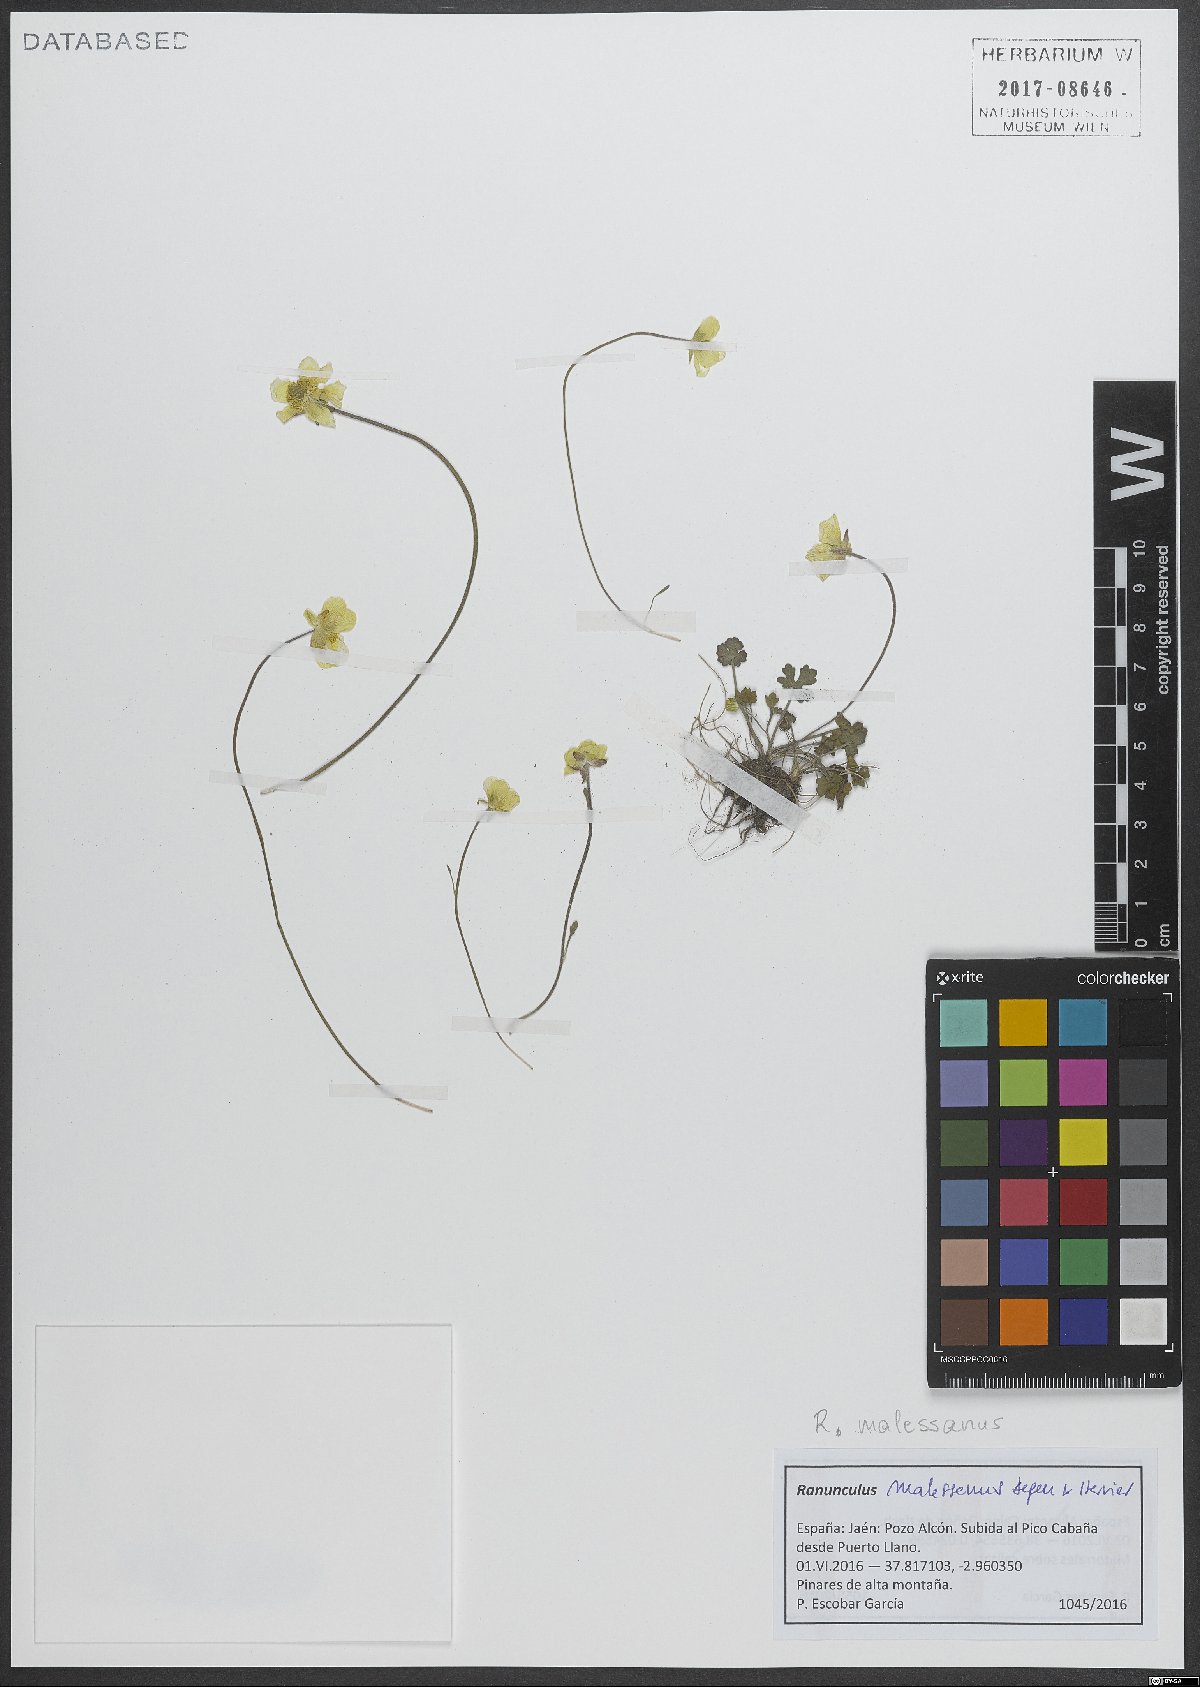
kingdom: Plantae
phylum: Tracheophyta
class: Magnoliopsida
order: Ranunculales
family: Ranunculaceae
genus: Ranunculus
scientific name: Ranunculus malessanus
